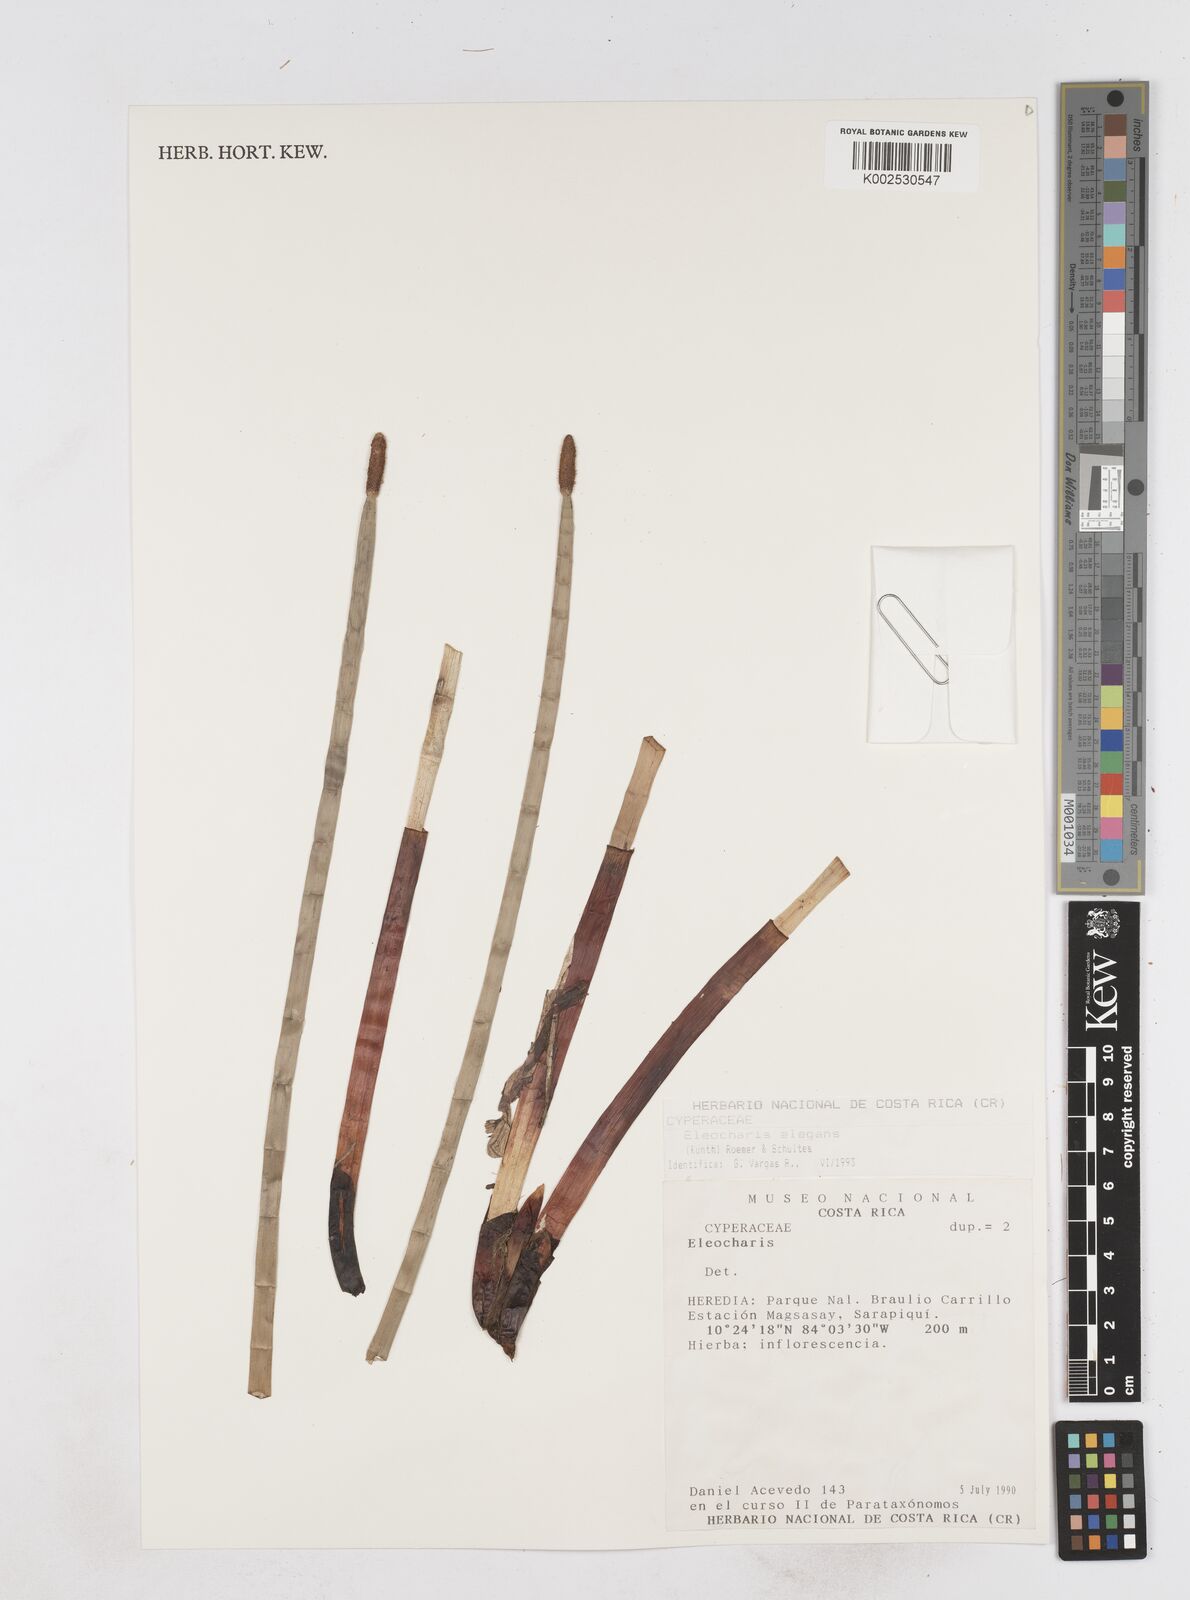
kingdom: Plantae
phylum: Tracheophyta
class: Liliopsida
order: Poales
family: Cyperaceae
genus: Eleocharis
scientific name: Eleocharis elegans
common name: Elegant spike-rush
